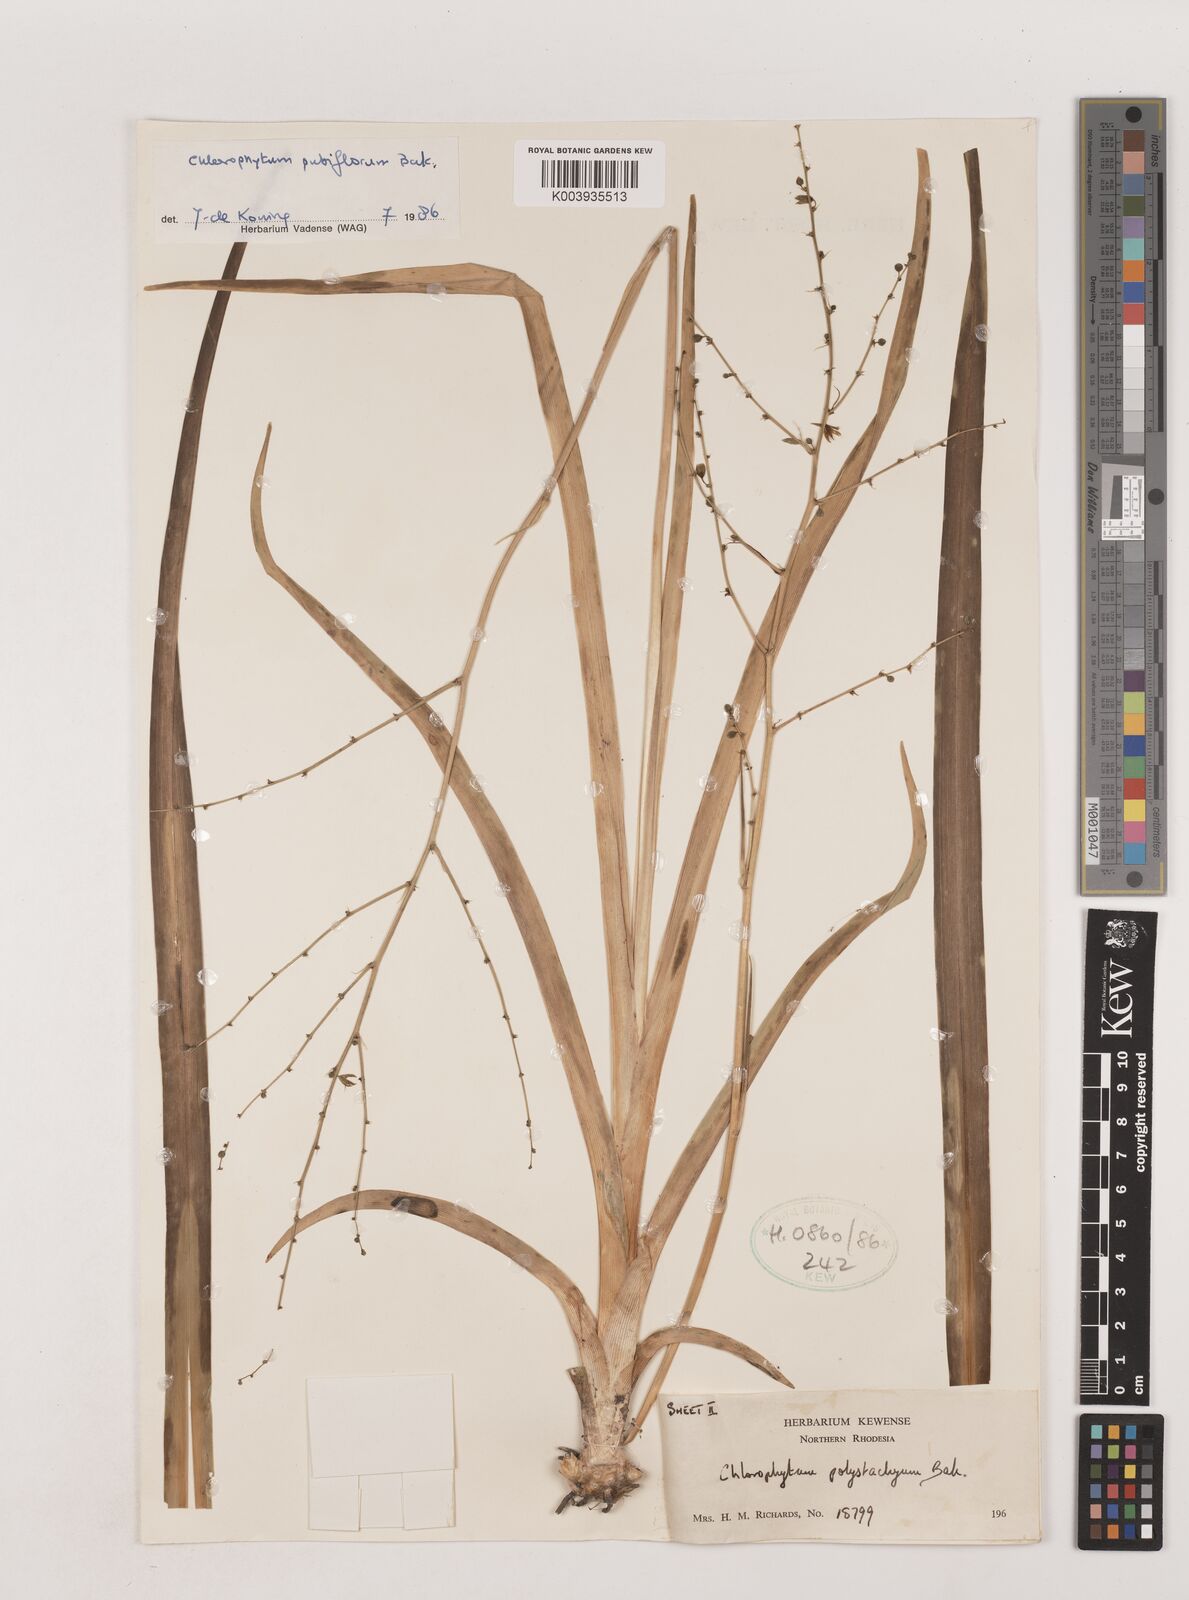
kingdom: Plantae
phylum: Tracheophyta
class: Liliopsida
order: Asparagales
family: Asparagaceae
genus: Chlorophytum
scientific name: Chlorophytum pubiflorum
